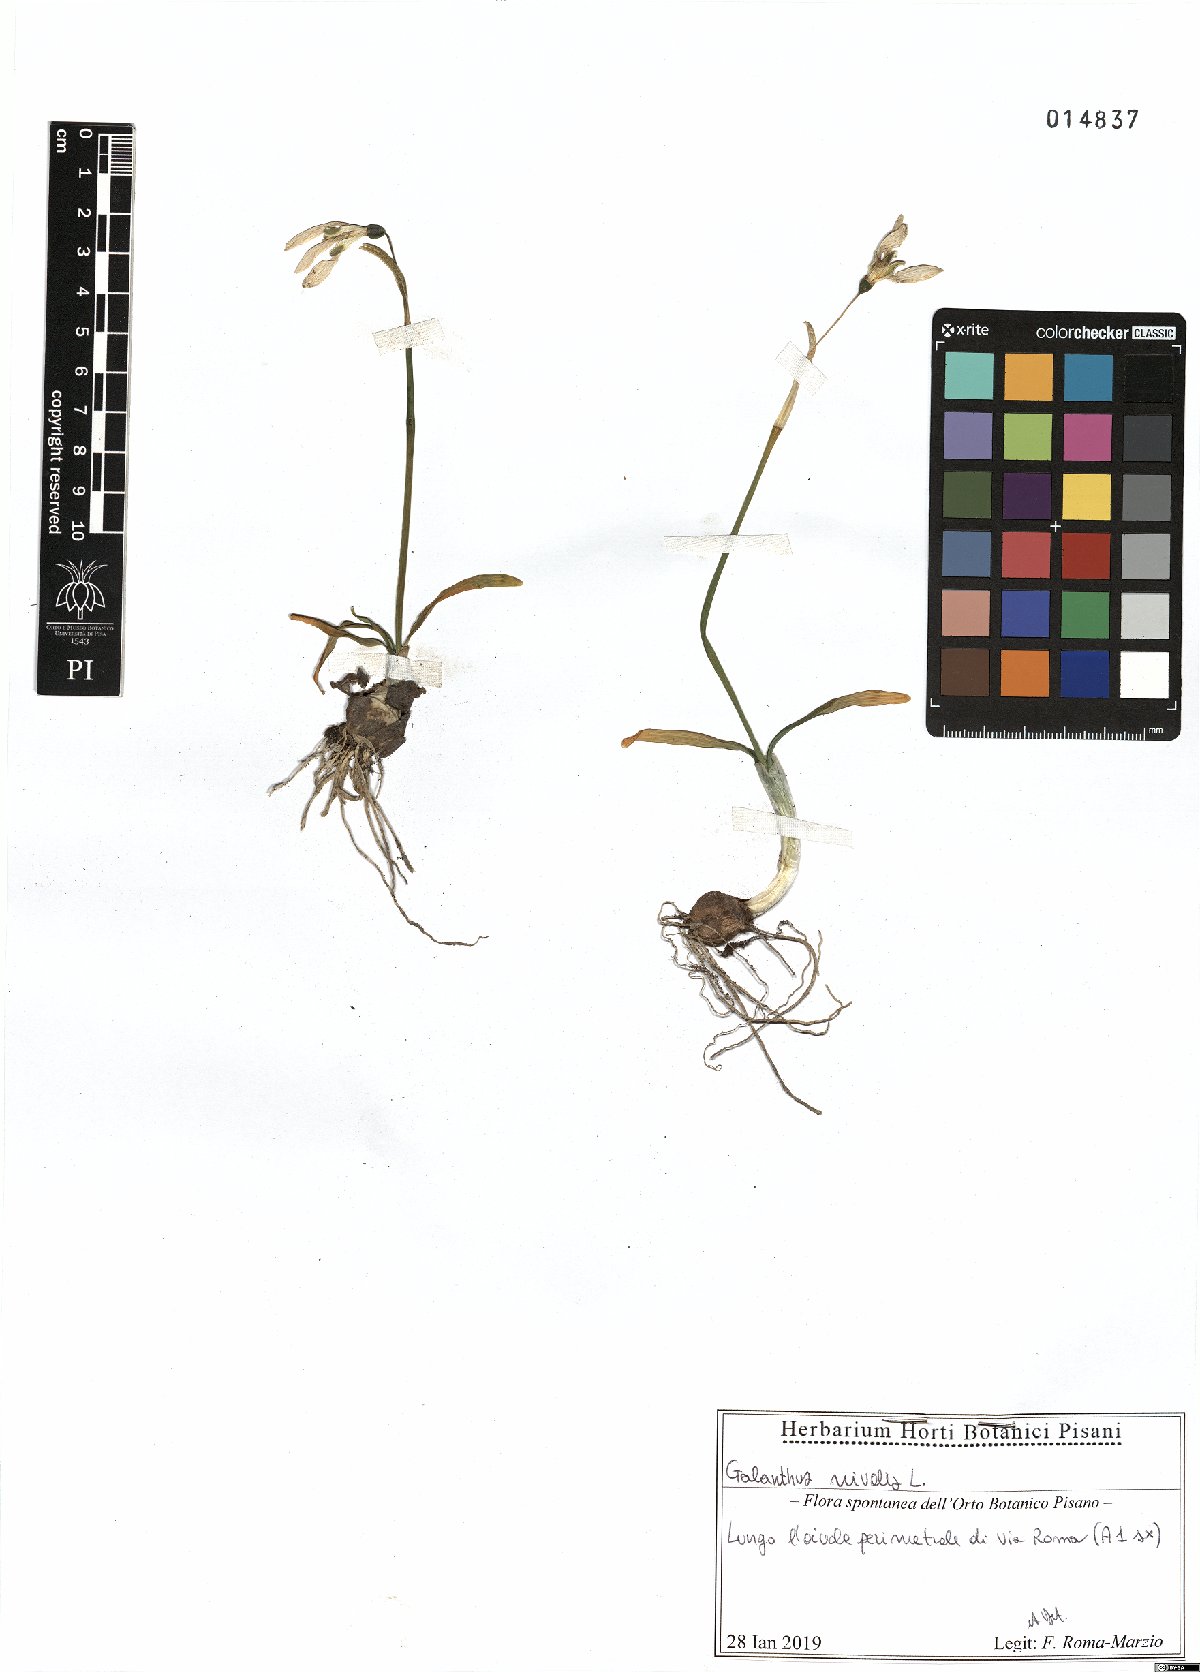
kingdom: Plantae
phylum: Tracheophyta
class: Liliopsida
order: Asparagales
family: Amaryllidaceae
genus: Galanthus
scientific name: Galanthus nivalis
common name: Snowdrop
